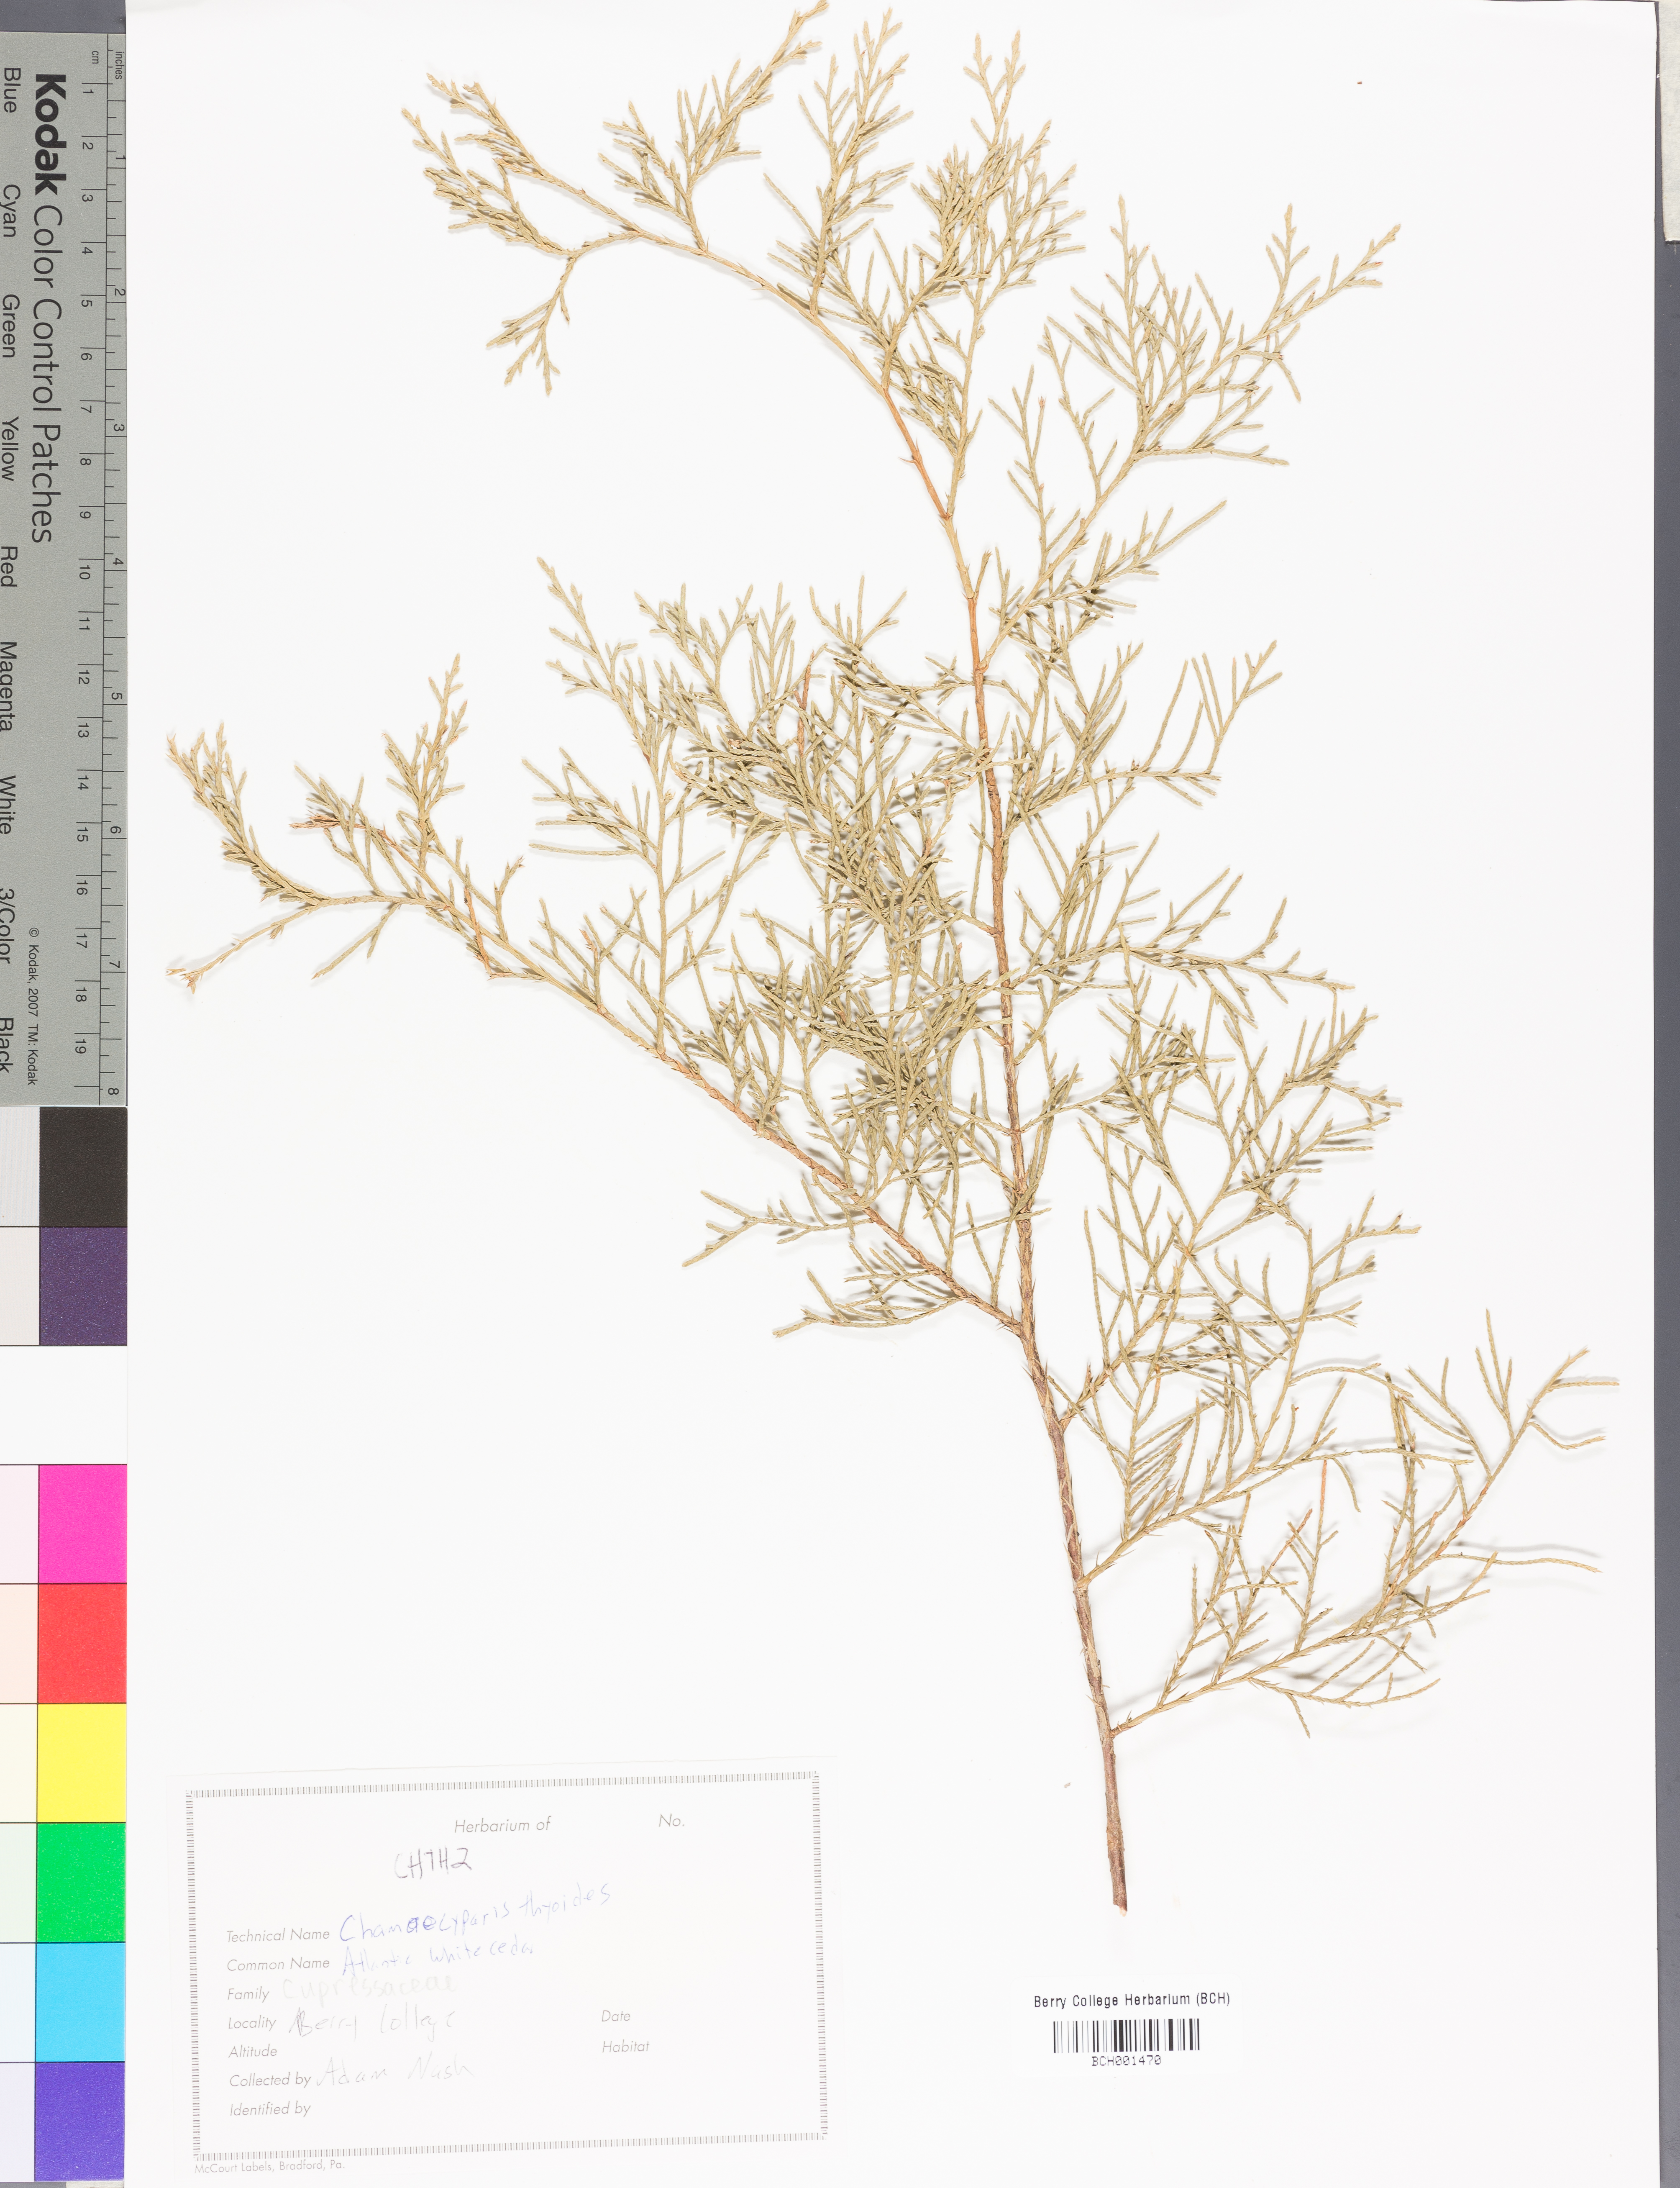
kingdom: Plantae
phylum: Tracheophyta
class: Pinopsida
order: Pinales
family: Cupressaceae
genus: Chamaecyparis
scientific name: Chamaecyparis thyoides
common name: Atlantic white cedar
